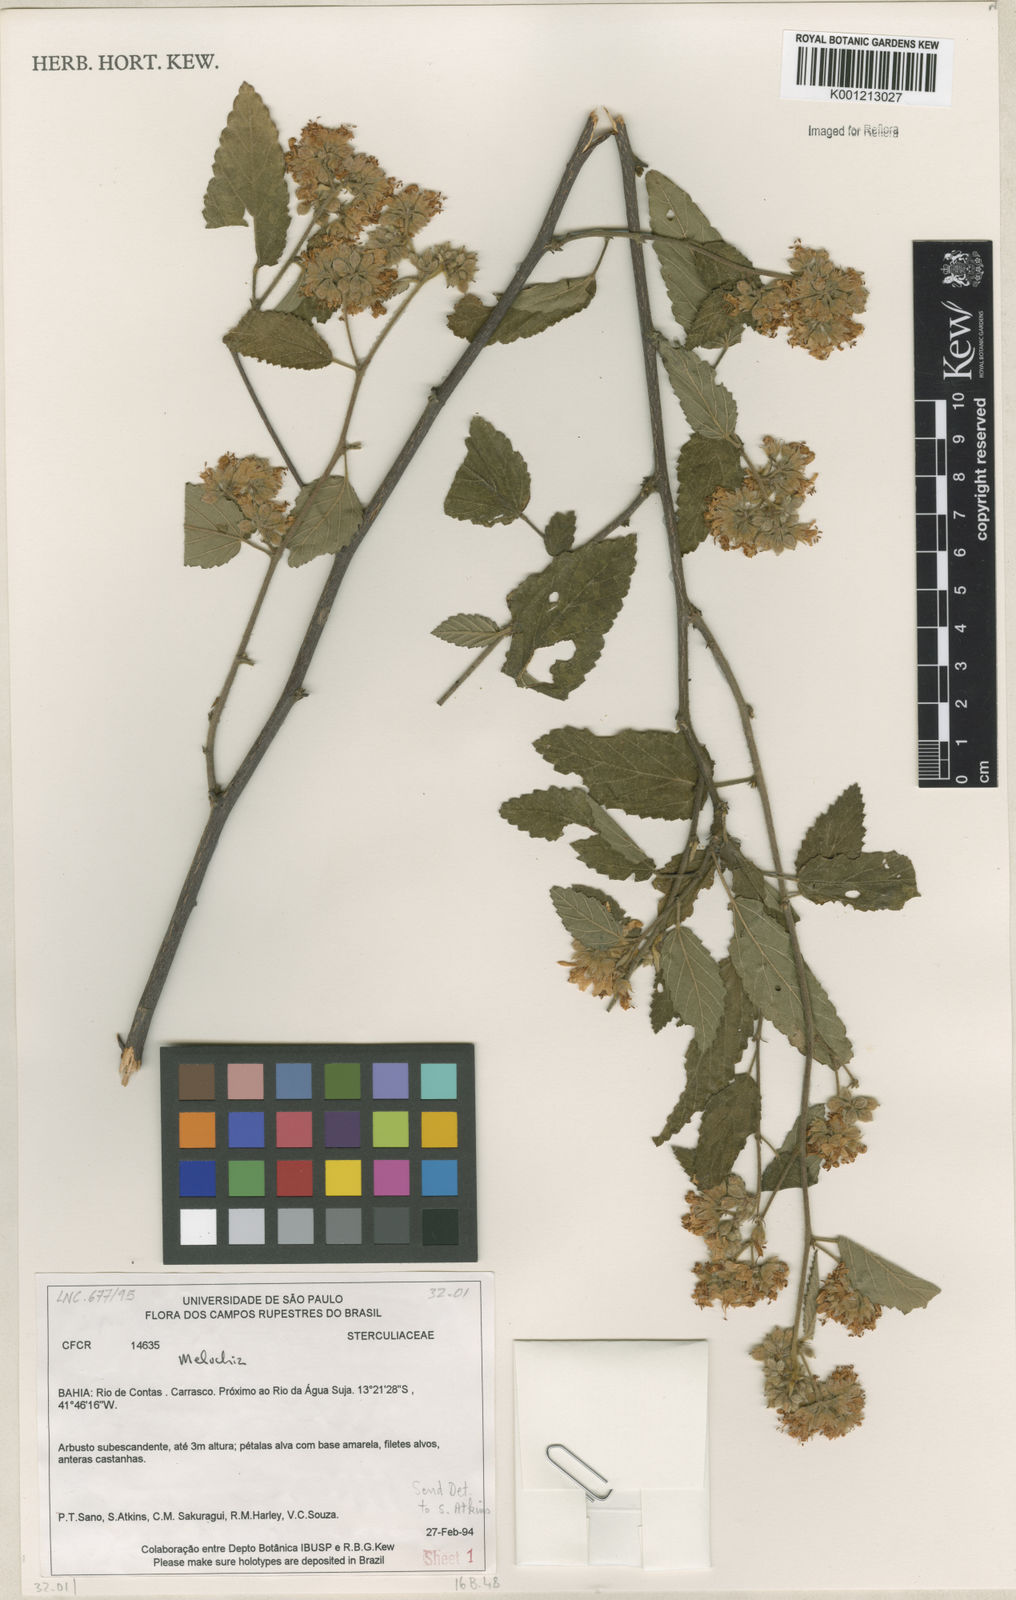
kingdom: Plantae
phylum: Tracheophyta
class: Magnoliopsida
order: Malvales
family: Malvaceae
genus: Melochia
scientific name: Melochia
